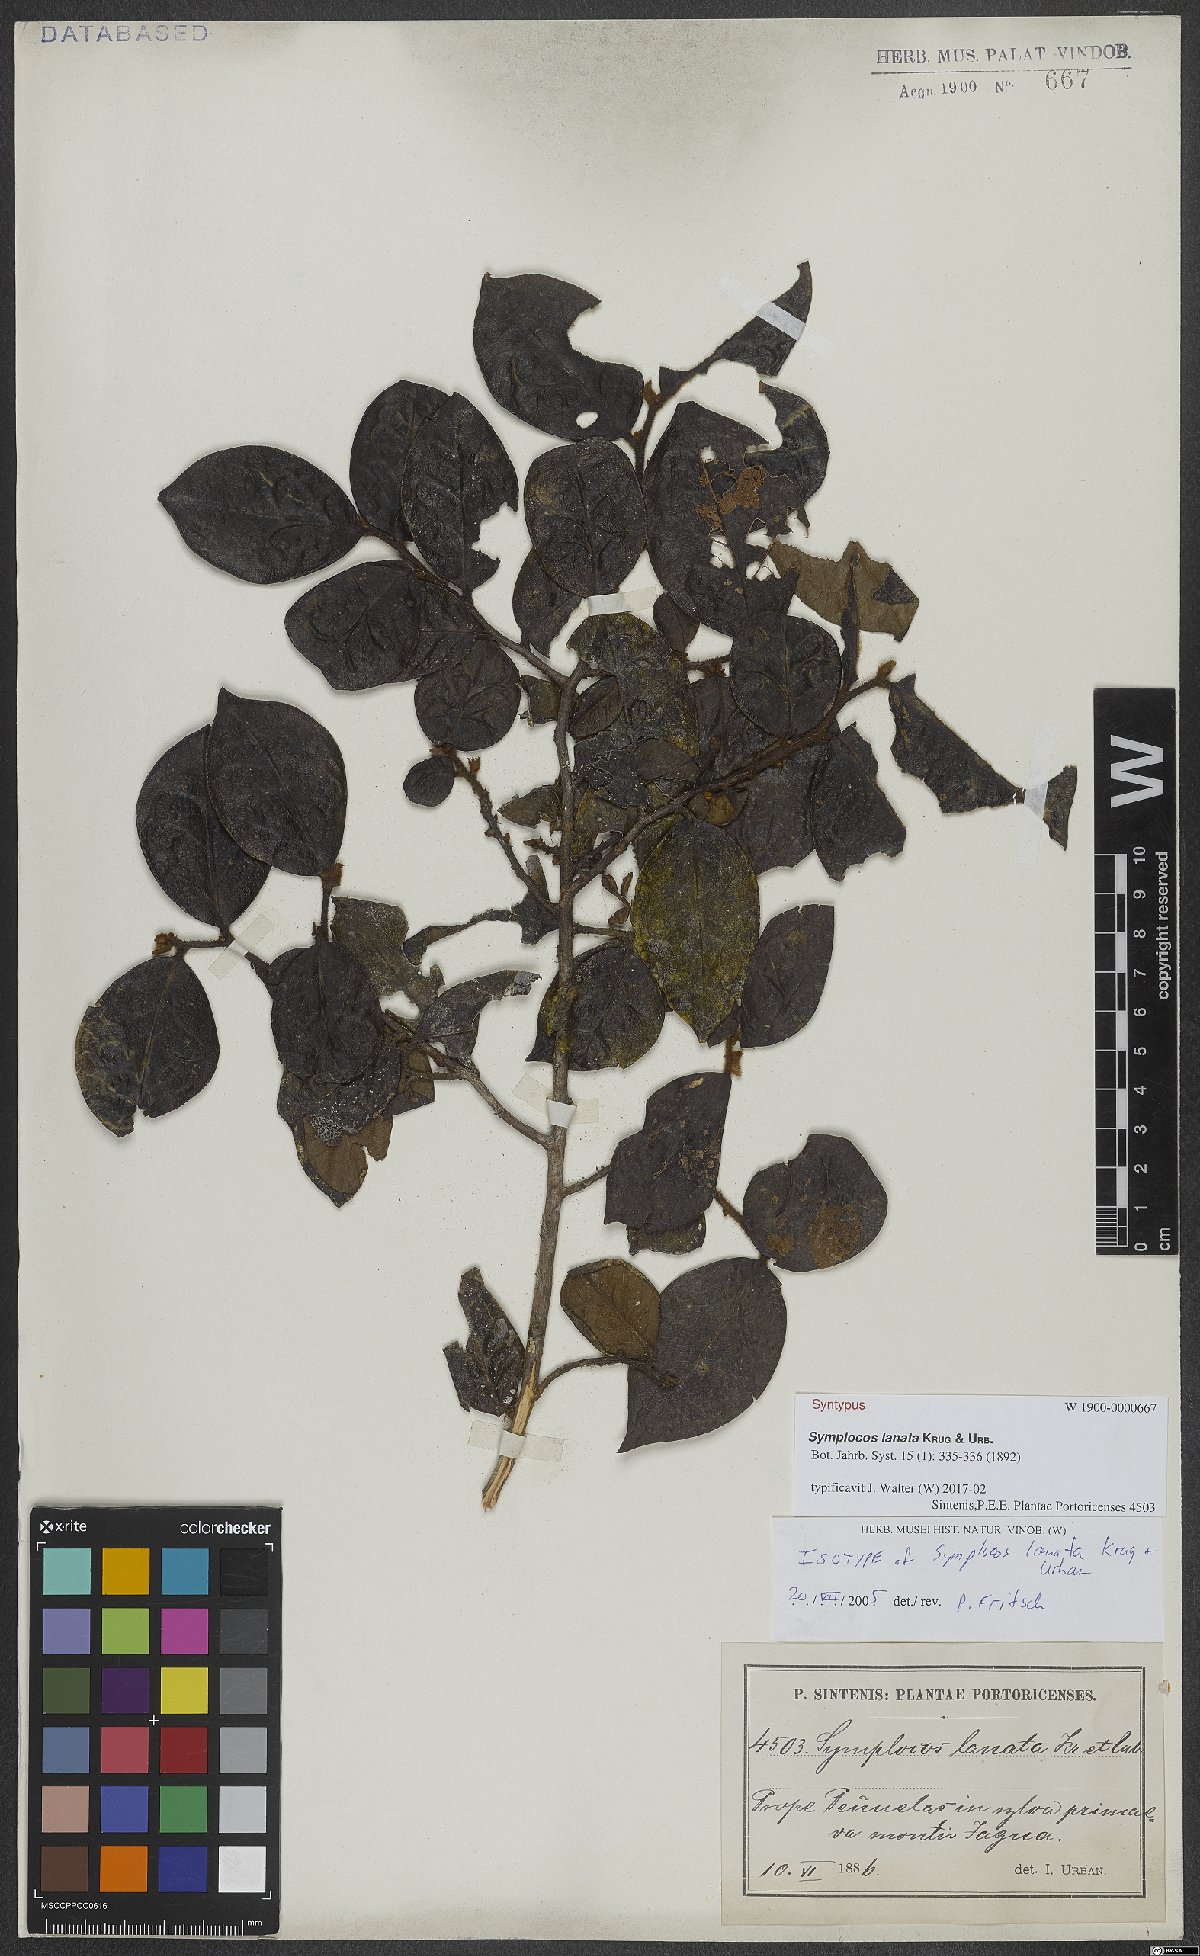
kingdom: Plantae
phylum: Tracheophyta
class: Magnoliopsida
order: Ericales
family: Symplocaceae
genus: Symplocos
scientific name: Symplocos lanata
